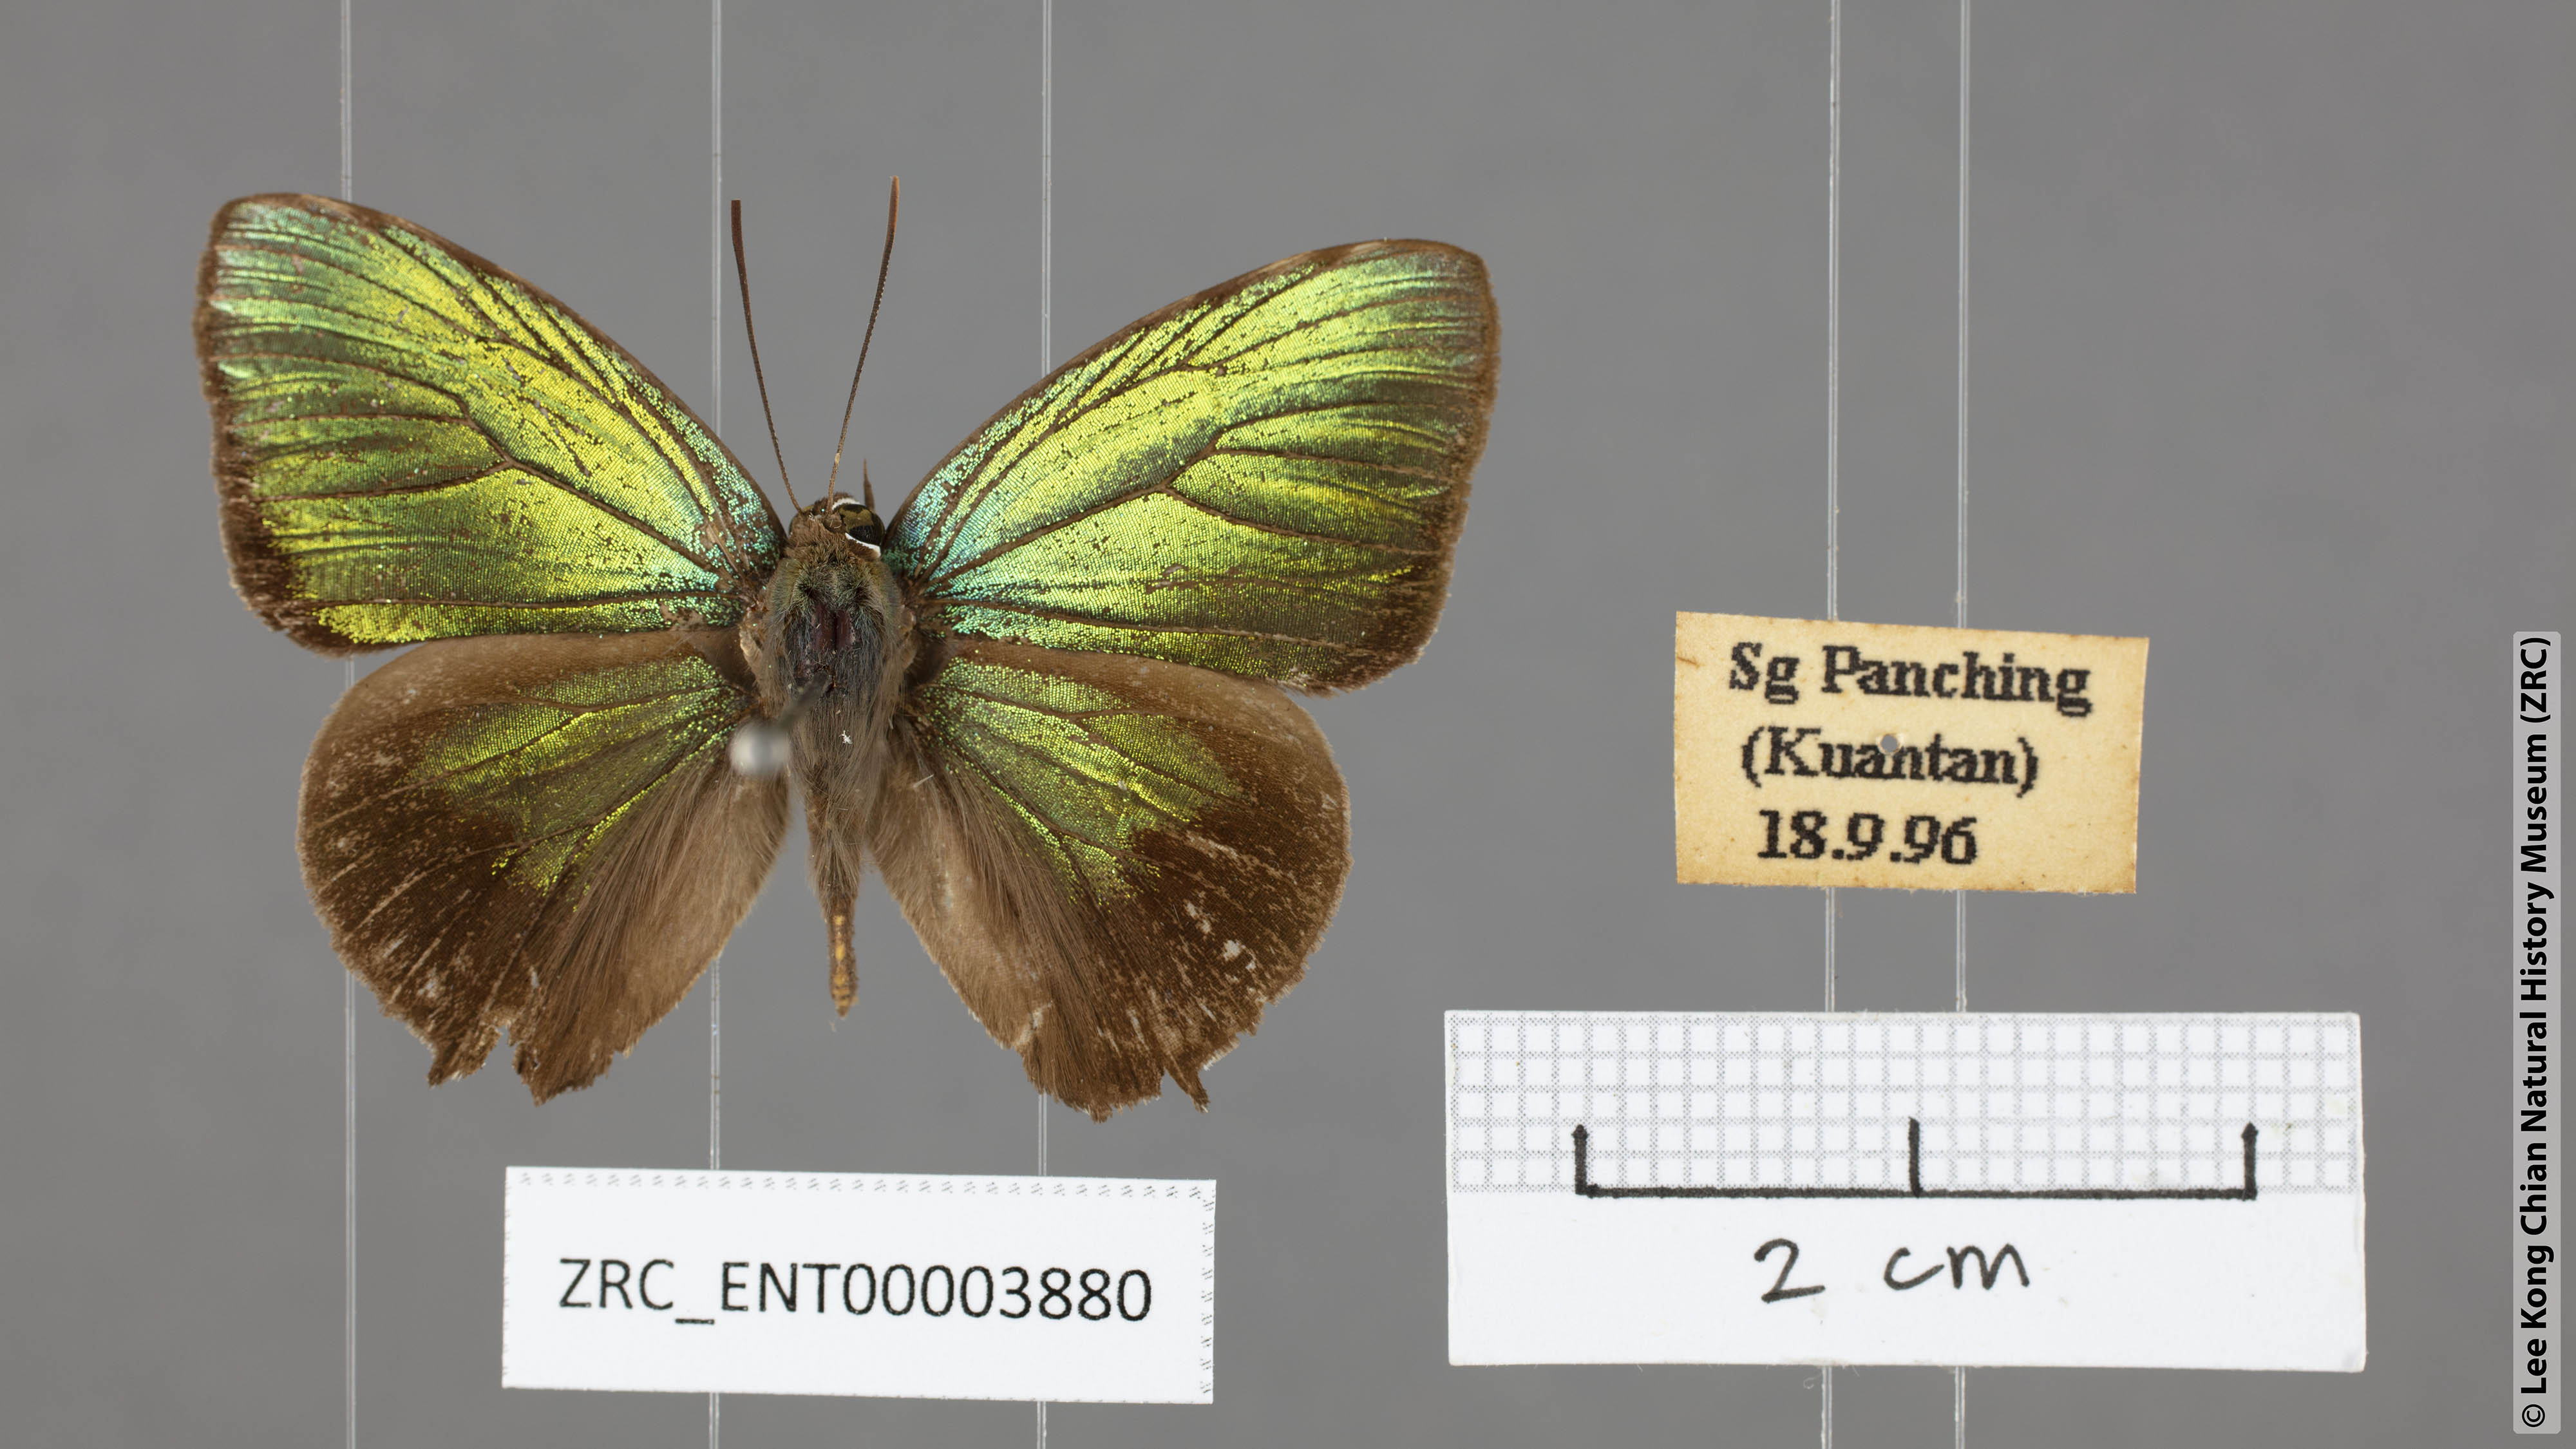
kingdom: Animalia
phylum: Arthropoda
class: Insecta
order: Lepidoptera
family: Lycaenidae
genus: Arhopala
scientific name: Arhopala aurea
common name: Long-celled oakblue
